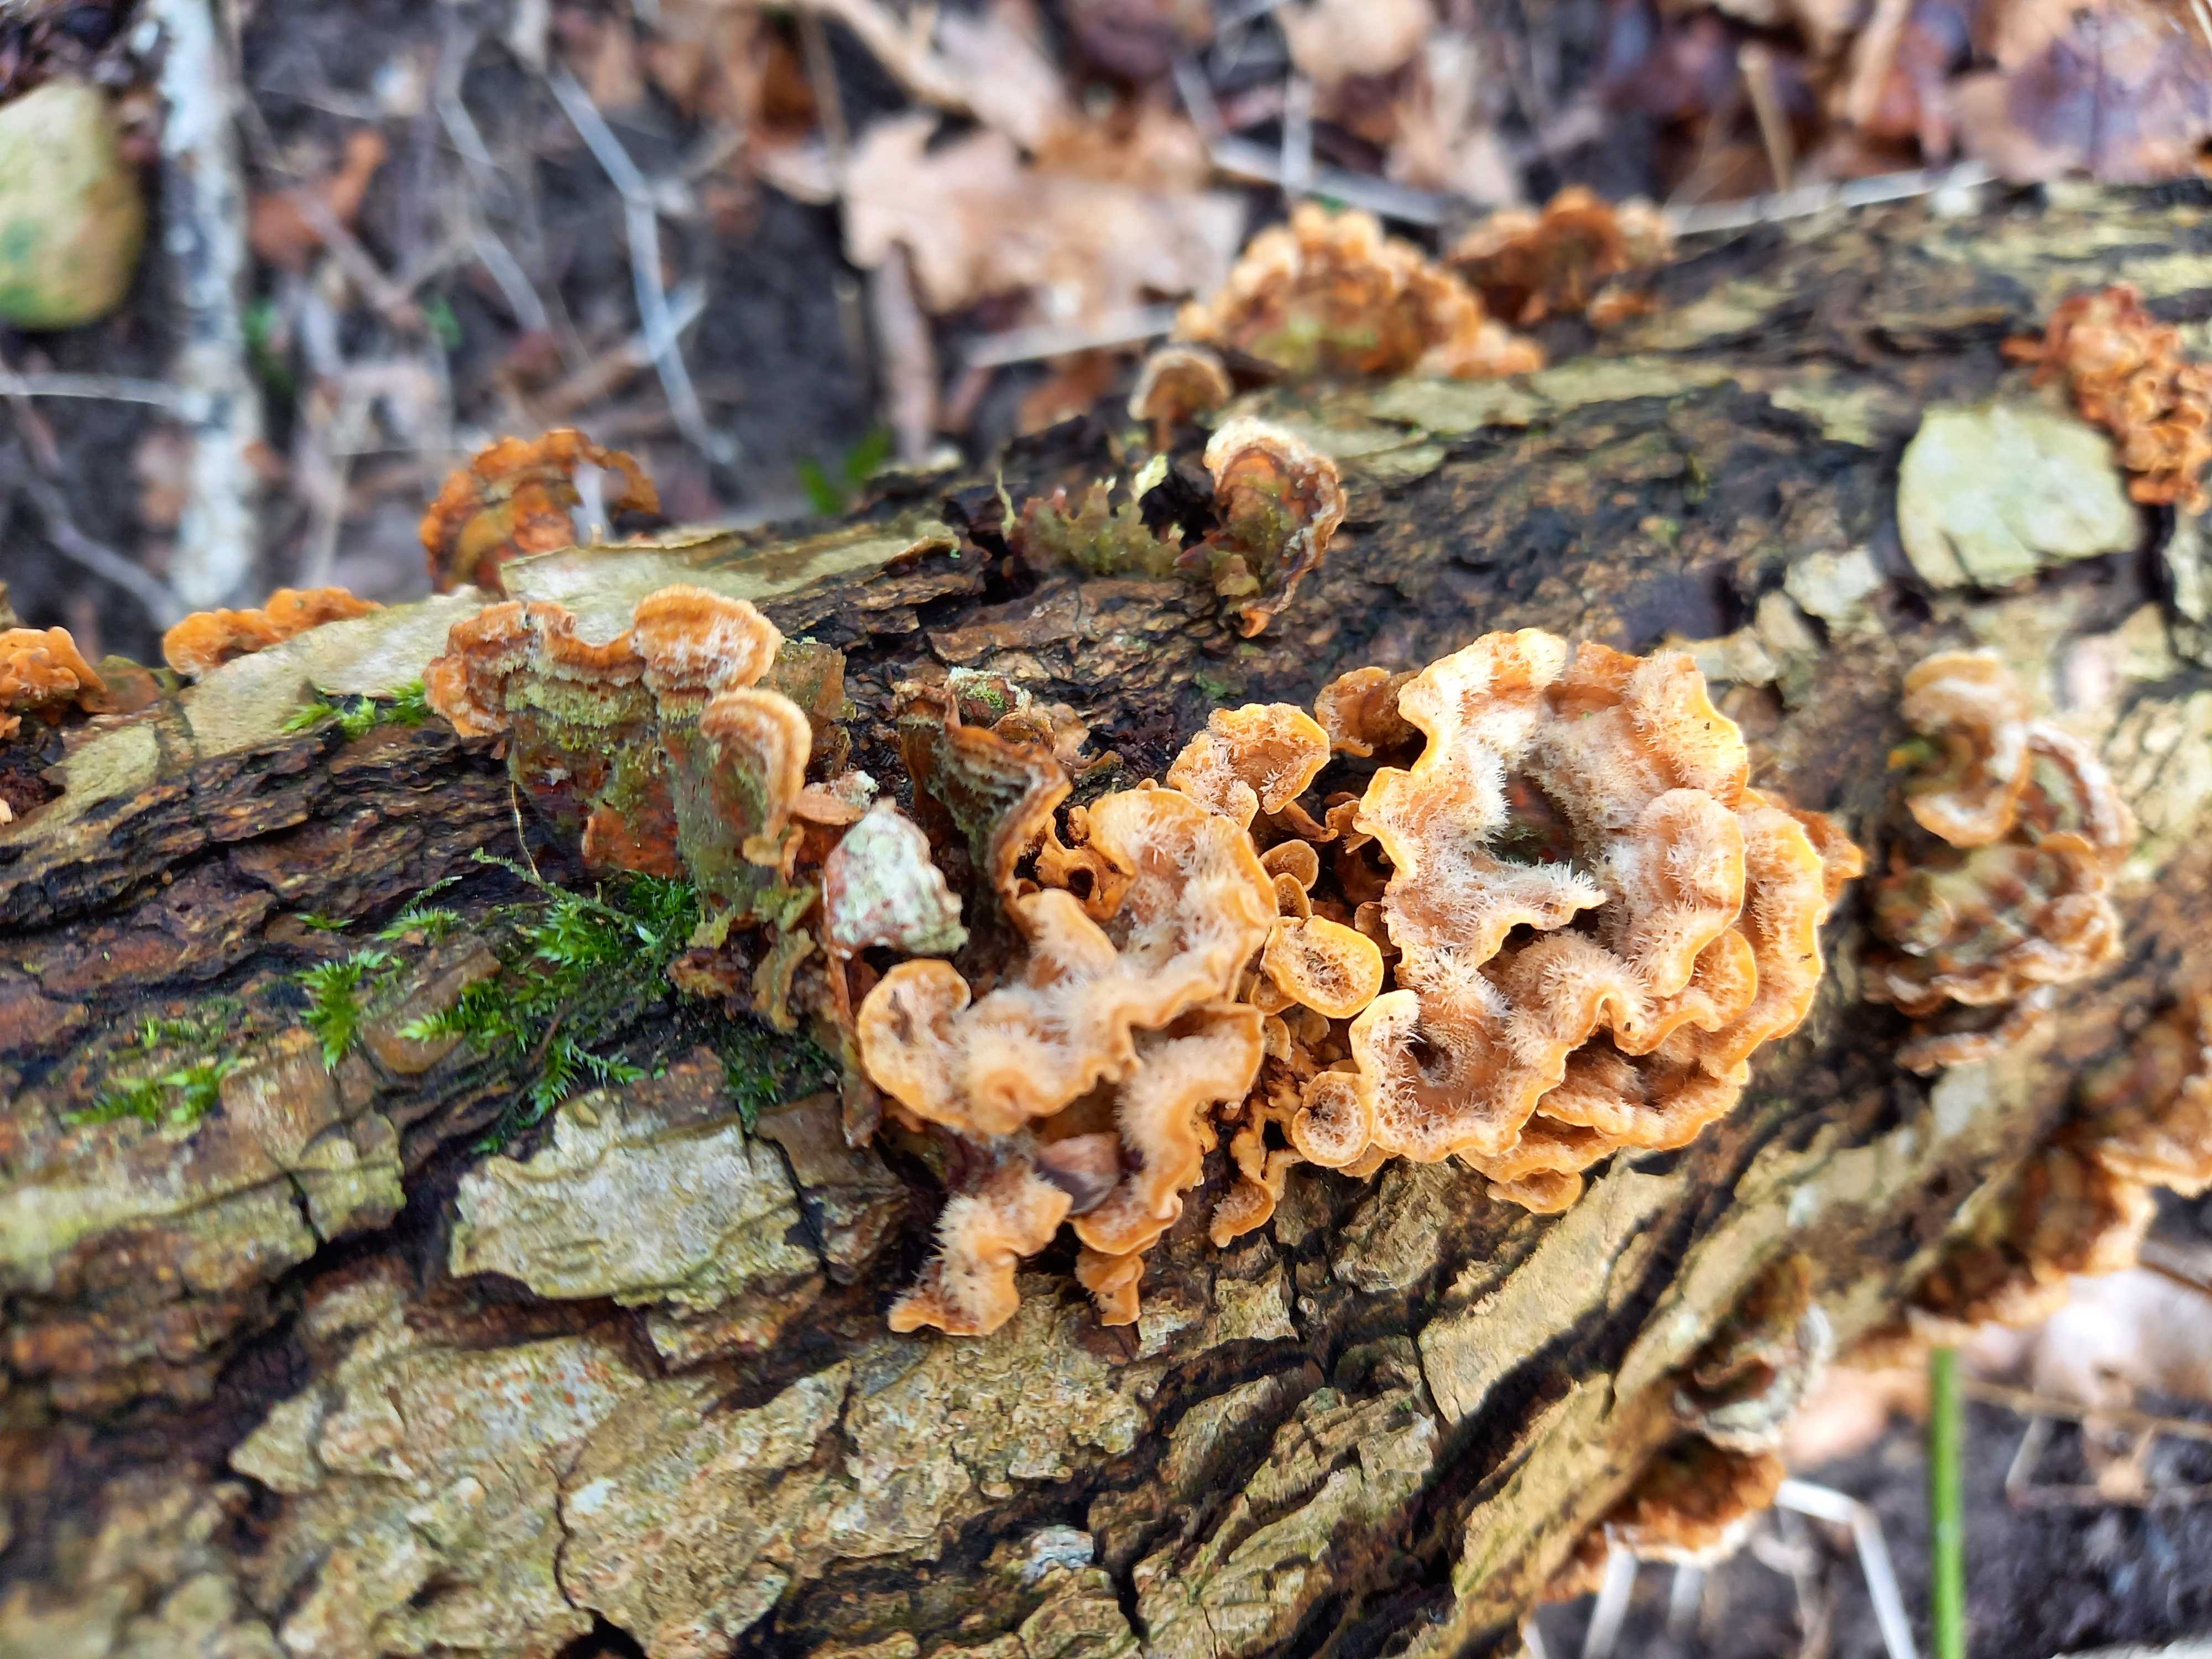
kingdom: Fungi
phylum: Basidiomycota
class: Agaricomycetes
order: Russulales
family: Stereaceae
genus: Stereum
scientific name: Stereum hirsutum
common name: håret lædersvamp
